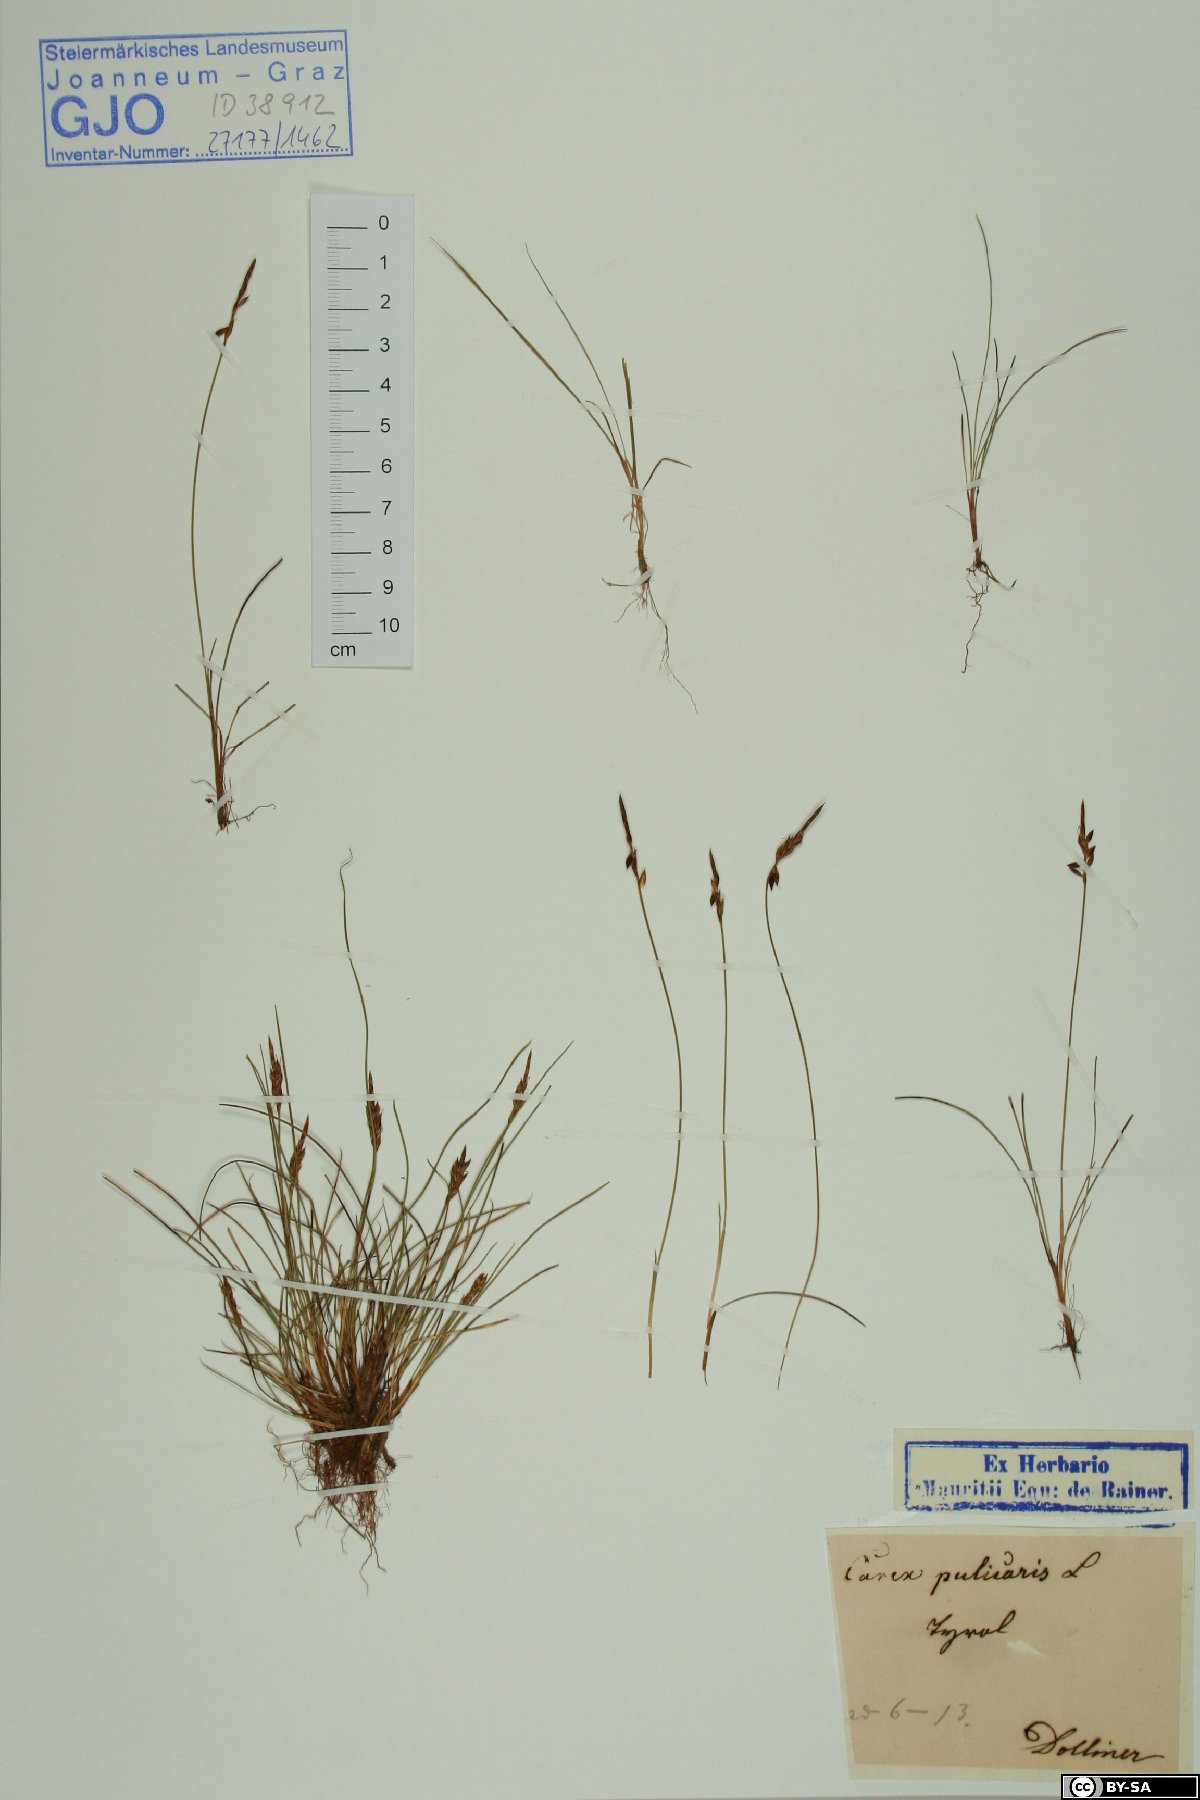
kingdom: Plantae
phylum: Tracheophyta
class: Liliopsida
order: Poales
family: Cyperaceae
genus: Carex
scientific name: Carex pulicaris
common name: Flea sedge
